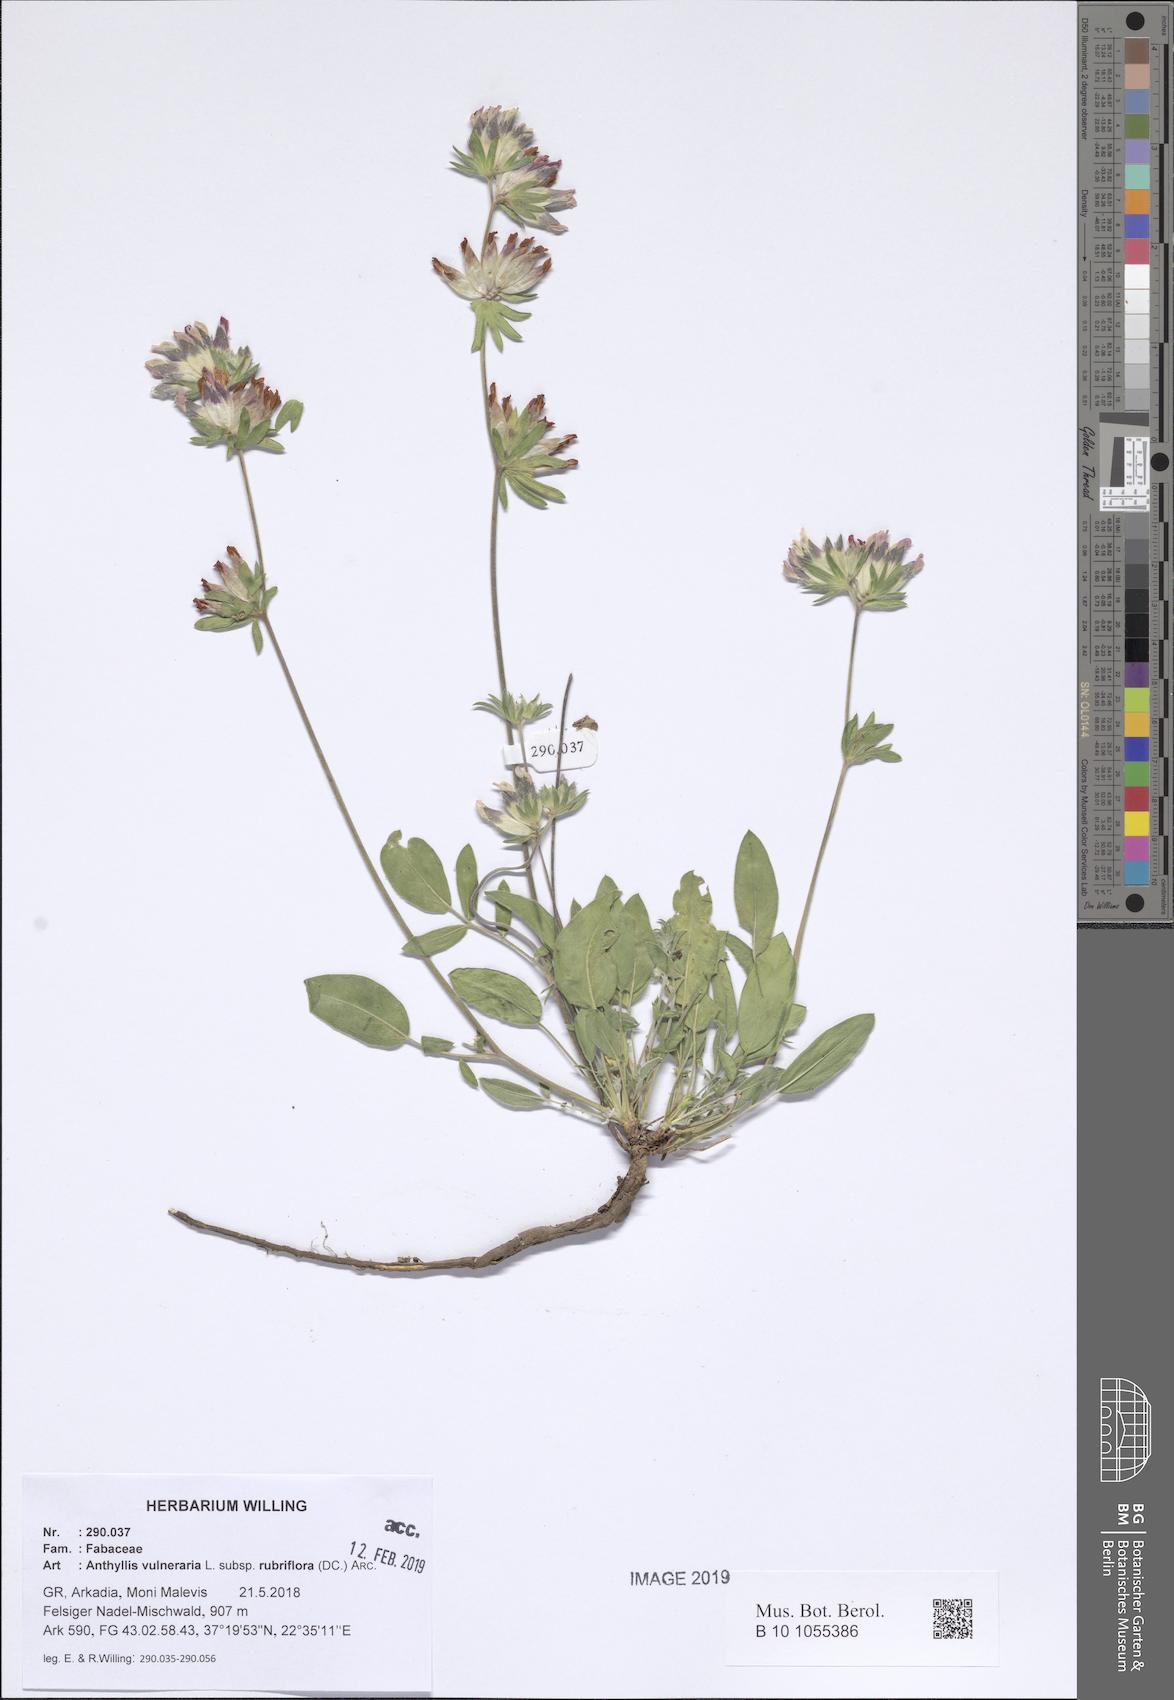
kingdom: Plantae
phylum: Tracheophyta
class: Magnoliopsida
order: Fabales
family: Fabaceae
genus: Anthyllis
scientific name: Anthyllis vulneraria
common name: Kidney vetch
